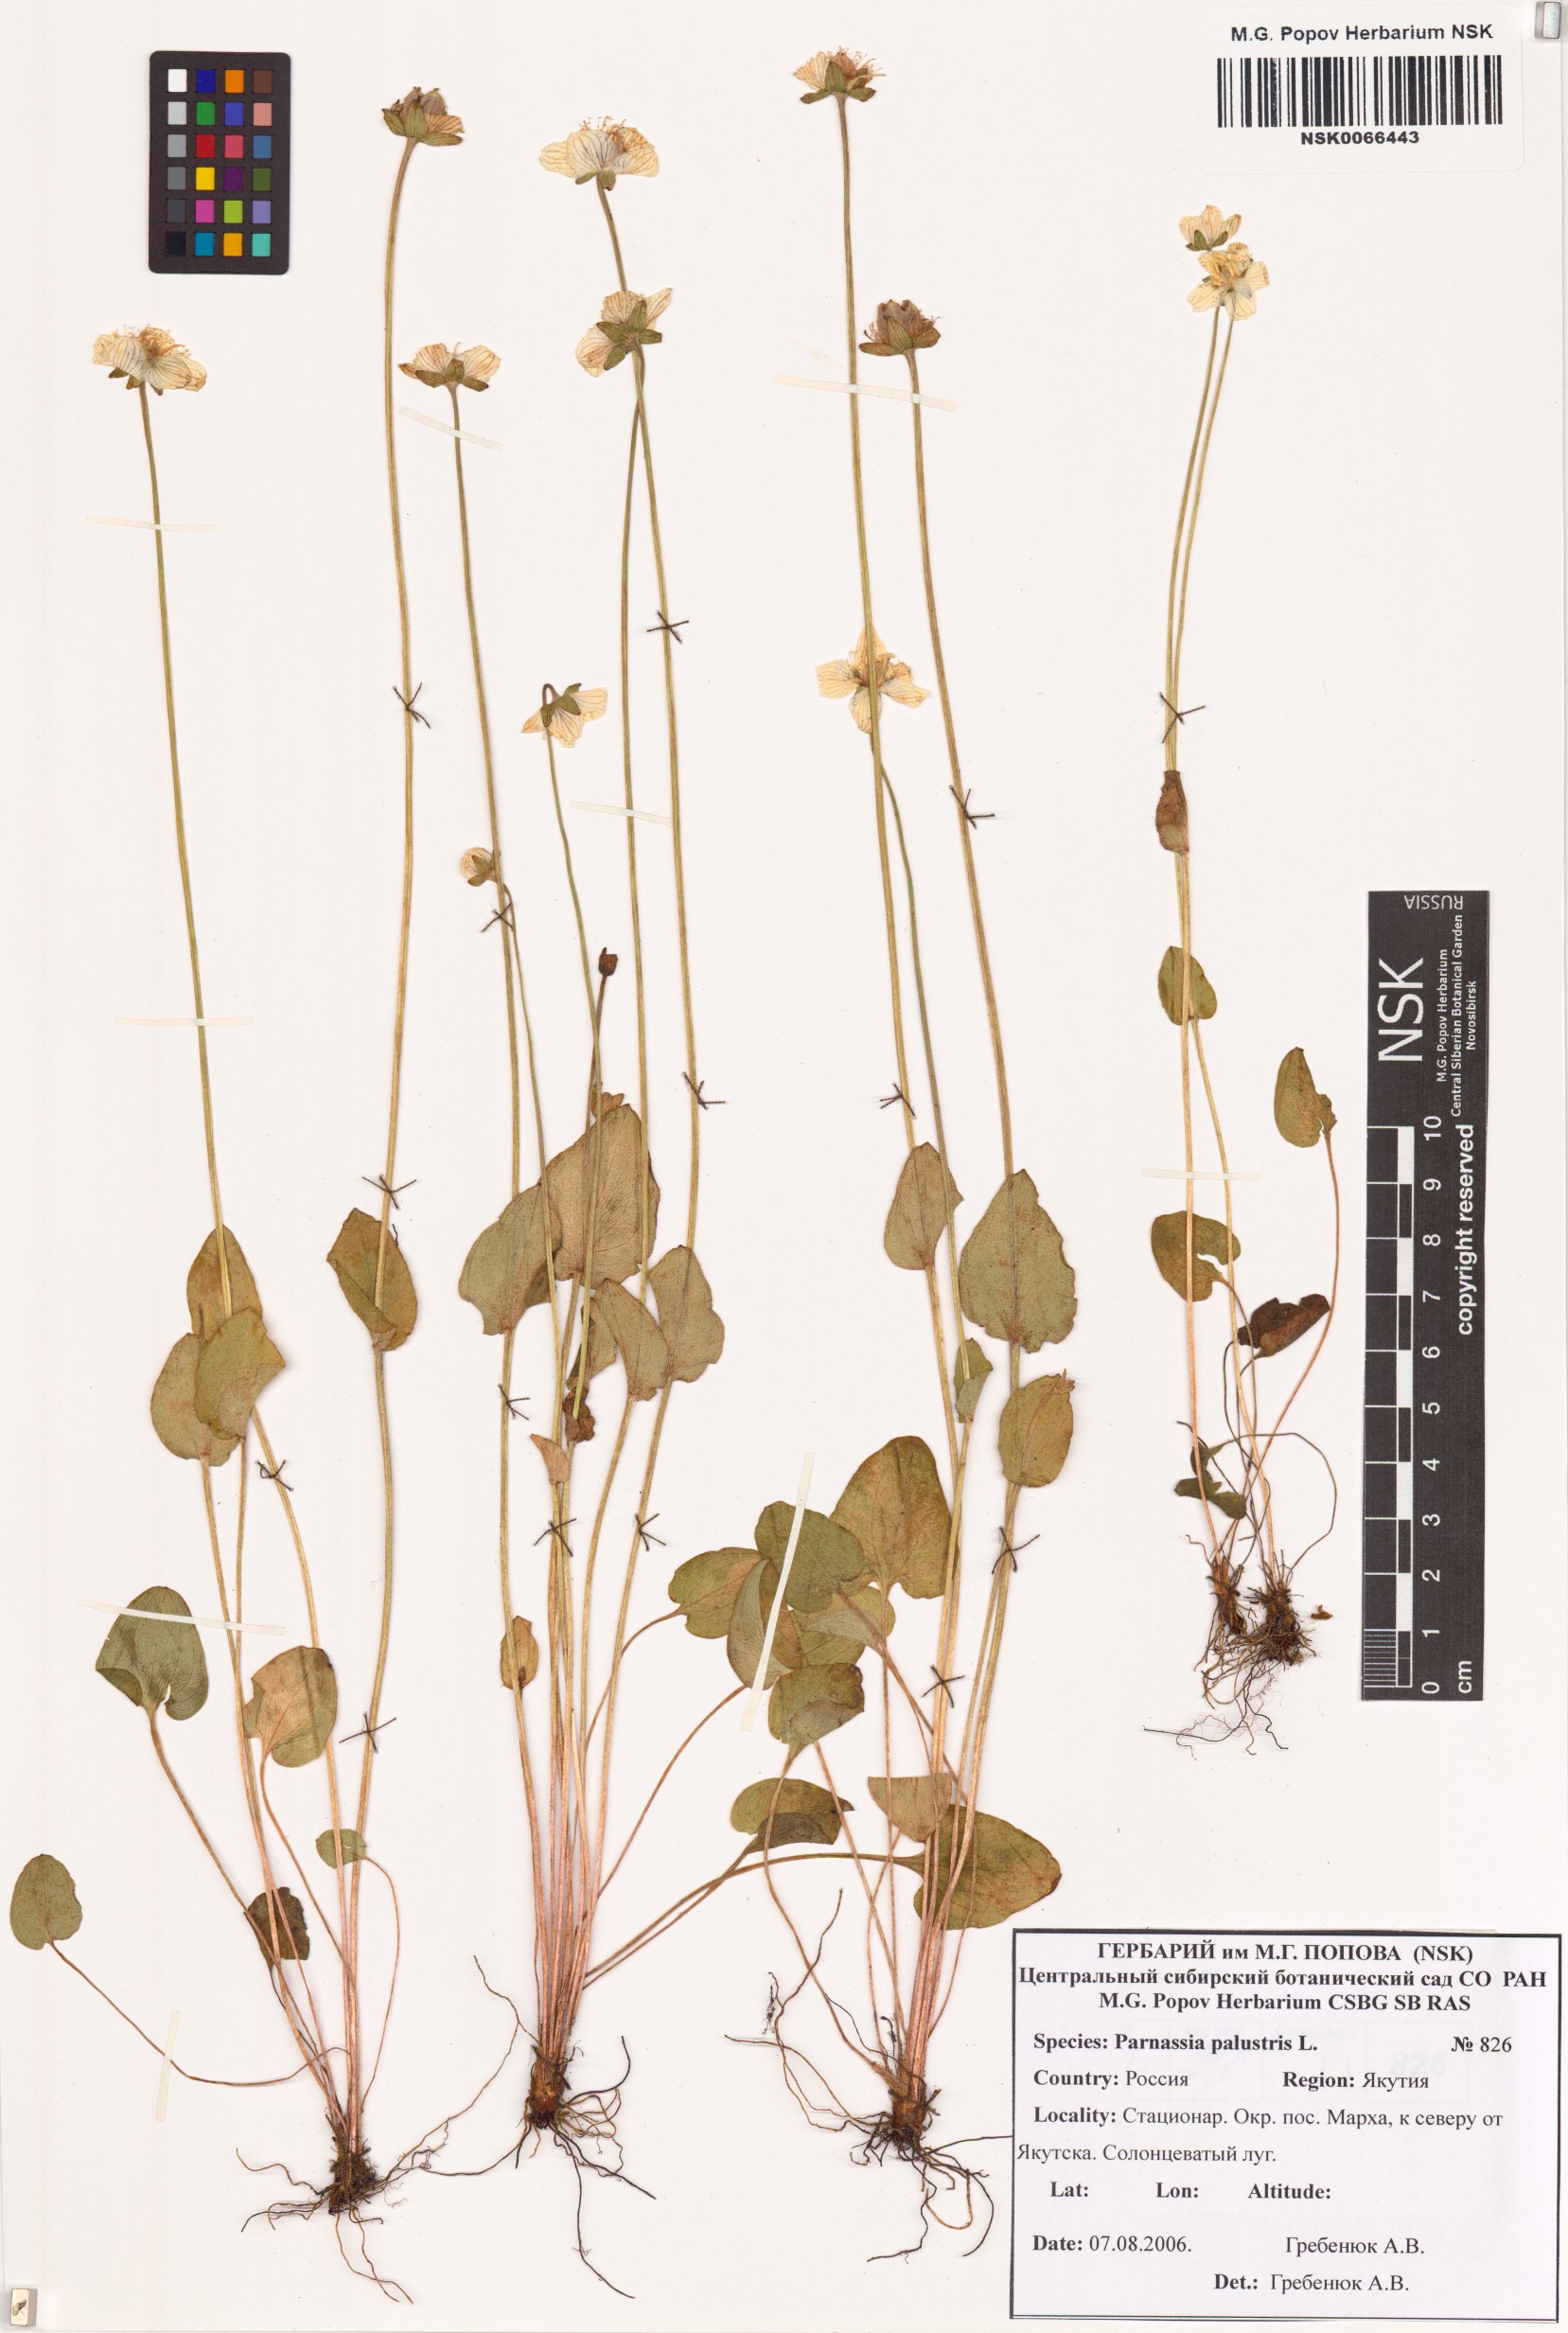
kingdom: Plantae
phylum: Tracheophyta
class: Magnoliopsida
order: Celastrales
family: Parnassiaceae
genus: Parnassia
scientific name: Parnassia palustris
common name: Grass-of-parnassus
